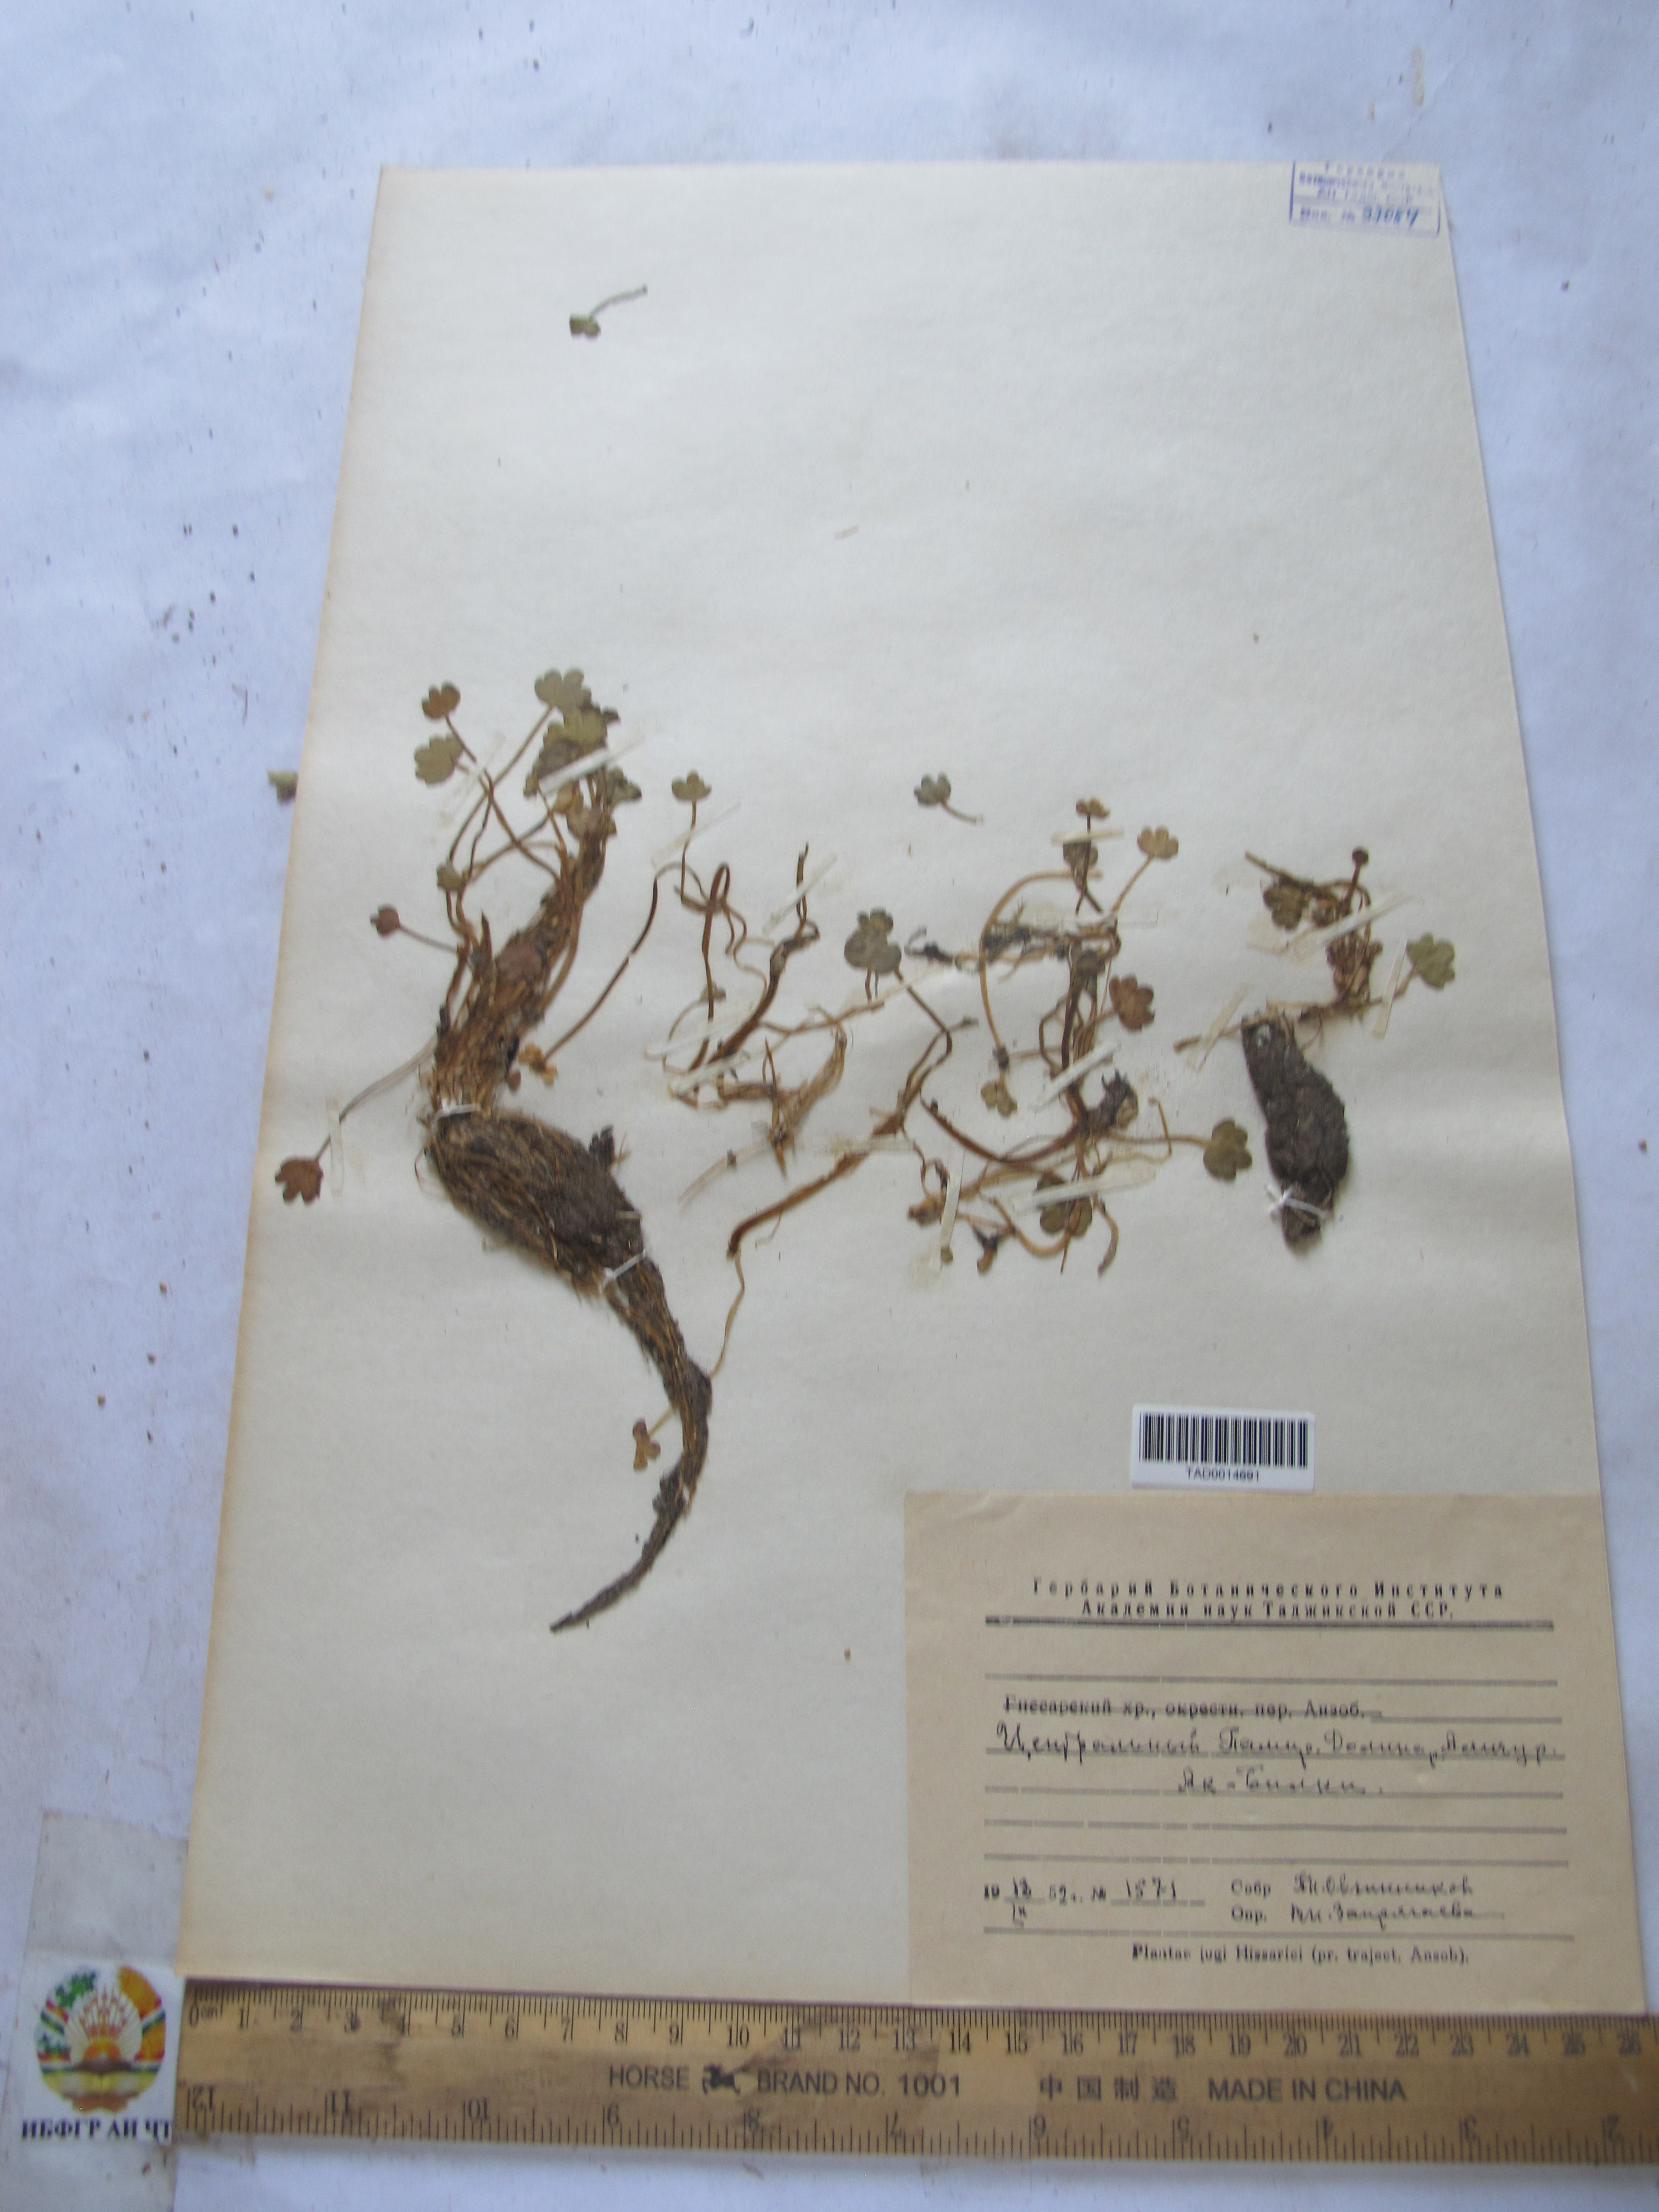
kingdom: Plantae
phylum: Tracheophyta
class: Magnoliopsida
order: Ranunculales
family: Ranunculaceae
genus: Ranunculus
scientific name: Ranunculus natans
